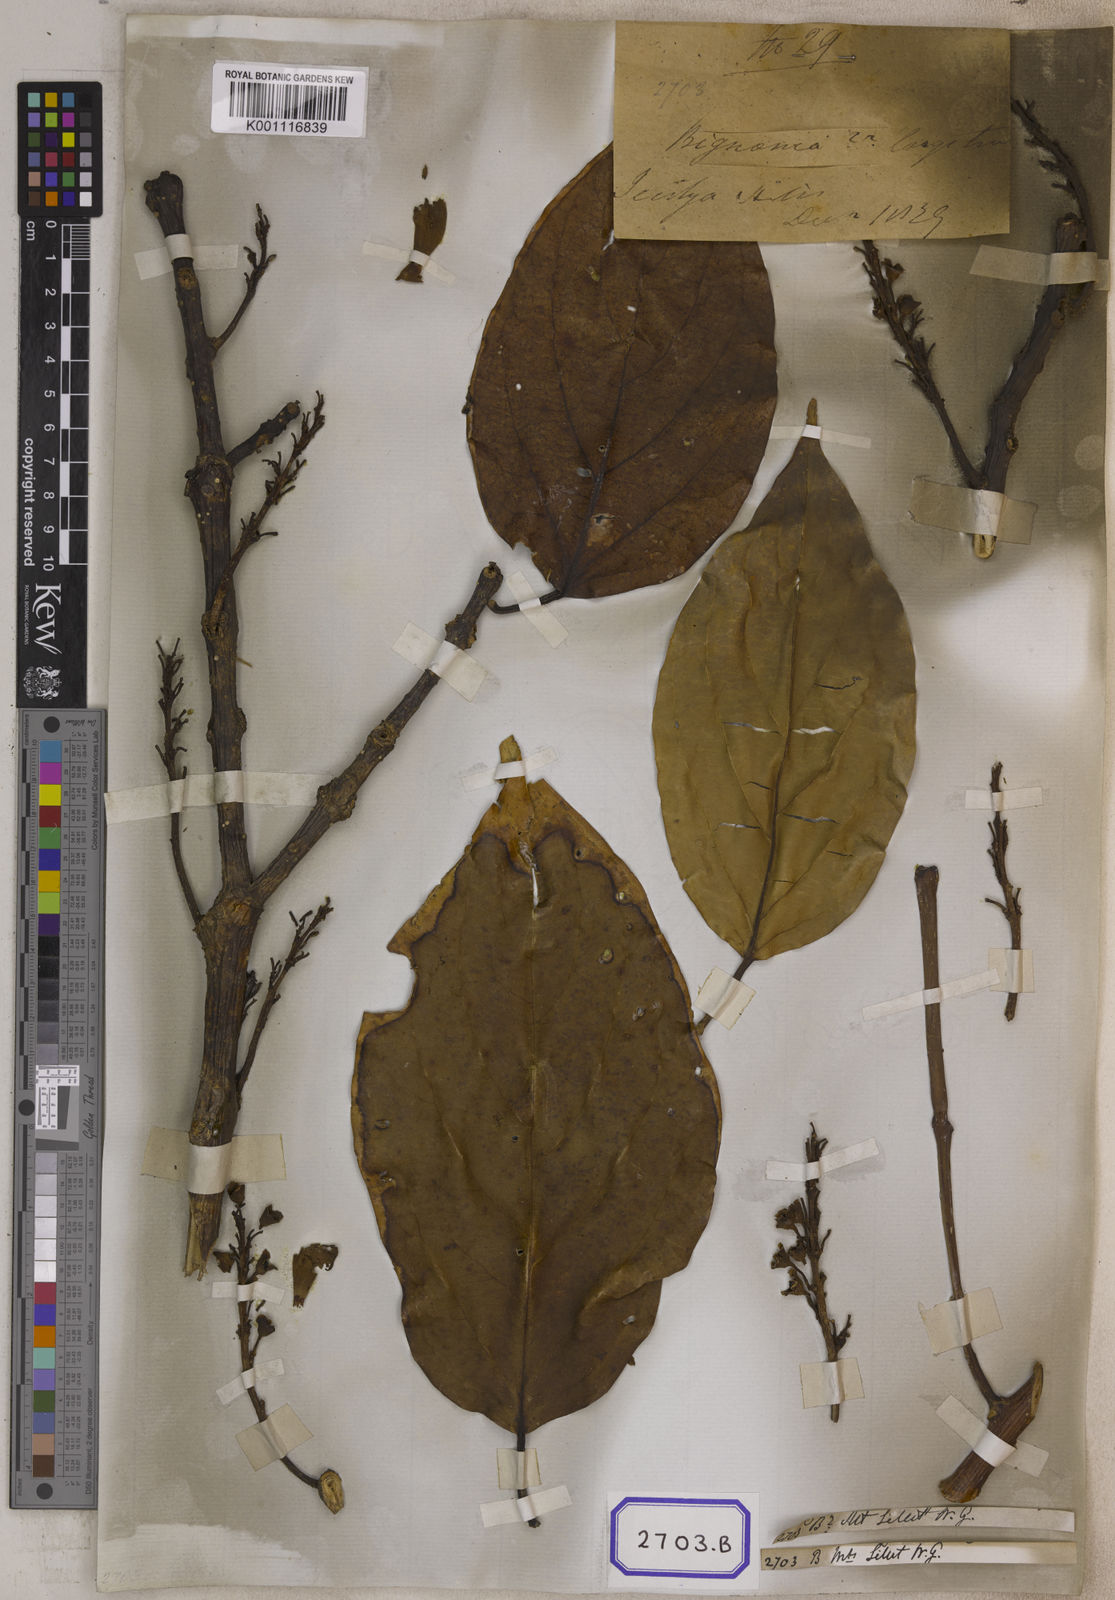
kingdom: Plantae
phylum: Tracheophyta
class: Magnoliopsida
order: Lamiales
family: Wightiaceae
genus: Wightia
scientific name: Wightia speciosissima
